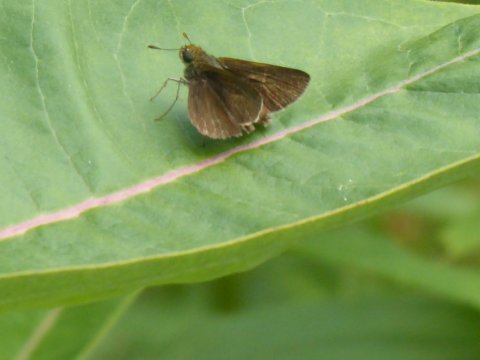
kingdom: Animalia
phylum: Arthropoda
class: Insecta
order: Lepidoptera
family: Hesperiidae
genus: Euphyes
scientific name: Euphyes vestris
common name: Dun Skipper
